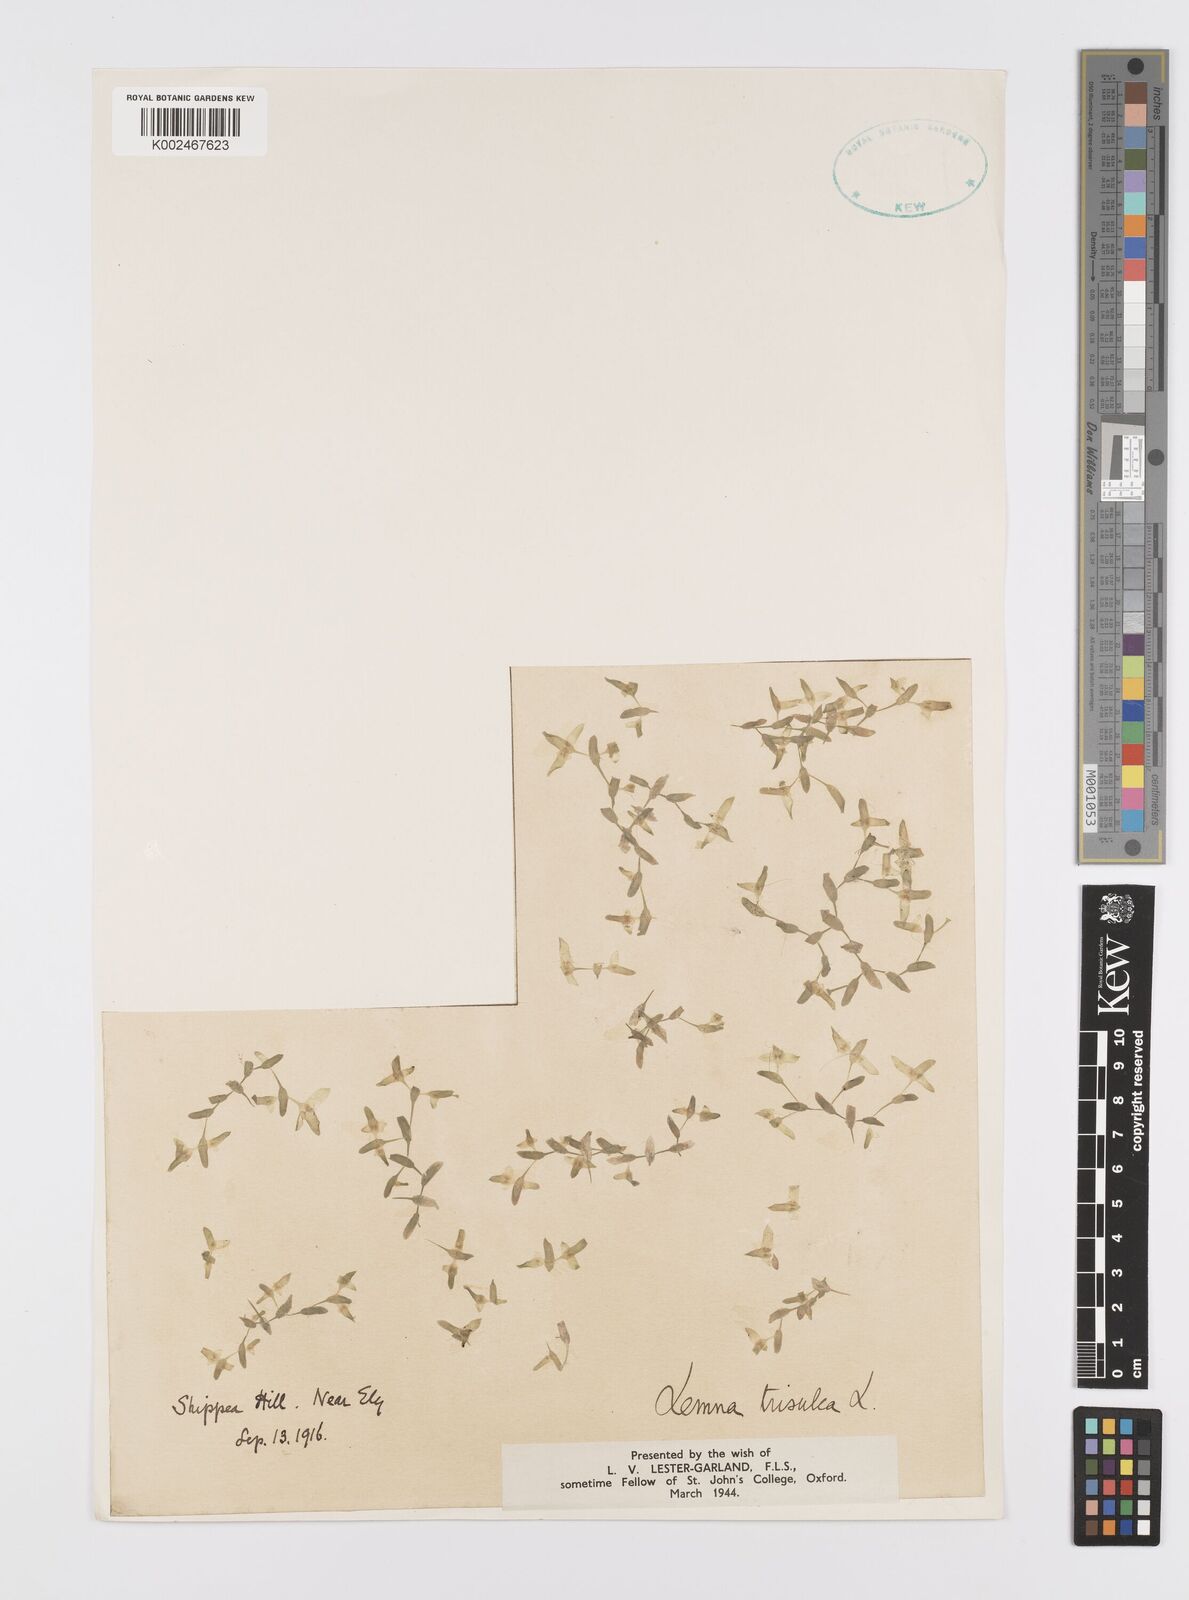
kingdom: Plantae
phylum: Tracheophyta
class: Liliopsida
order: Alismatales
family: Araceae
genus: Lemna
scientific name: Lemna trisulca
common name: Ivy-leaved duckweed
